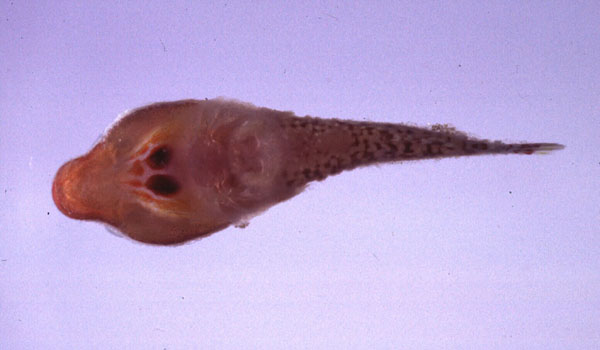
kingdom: Animalia
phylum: Chordata
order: Gobiesociformes
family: Gobiesocidae
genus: Apletodon
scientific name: Apletodon pellegrini
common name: Chubby clingfish
